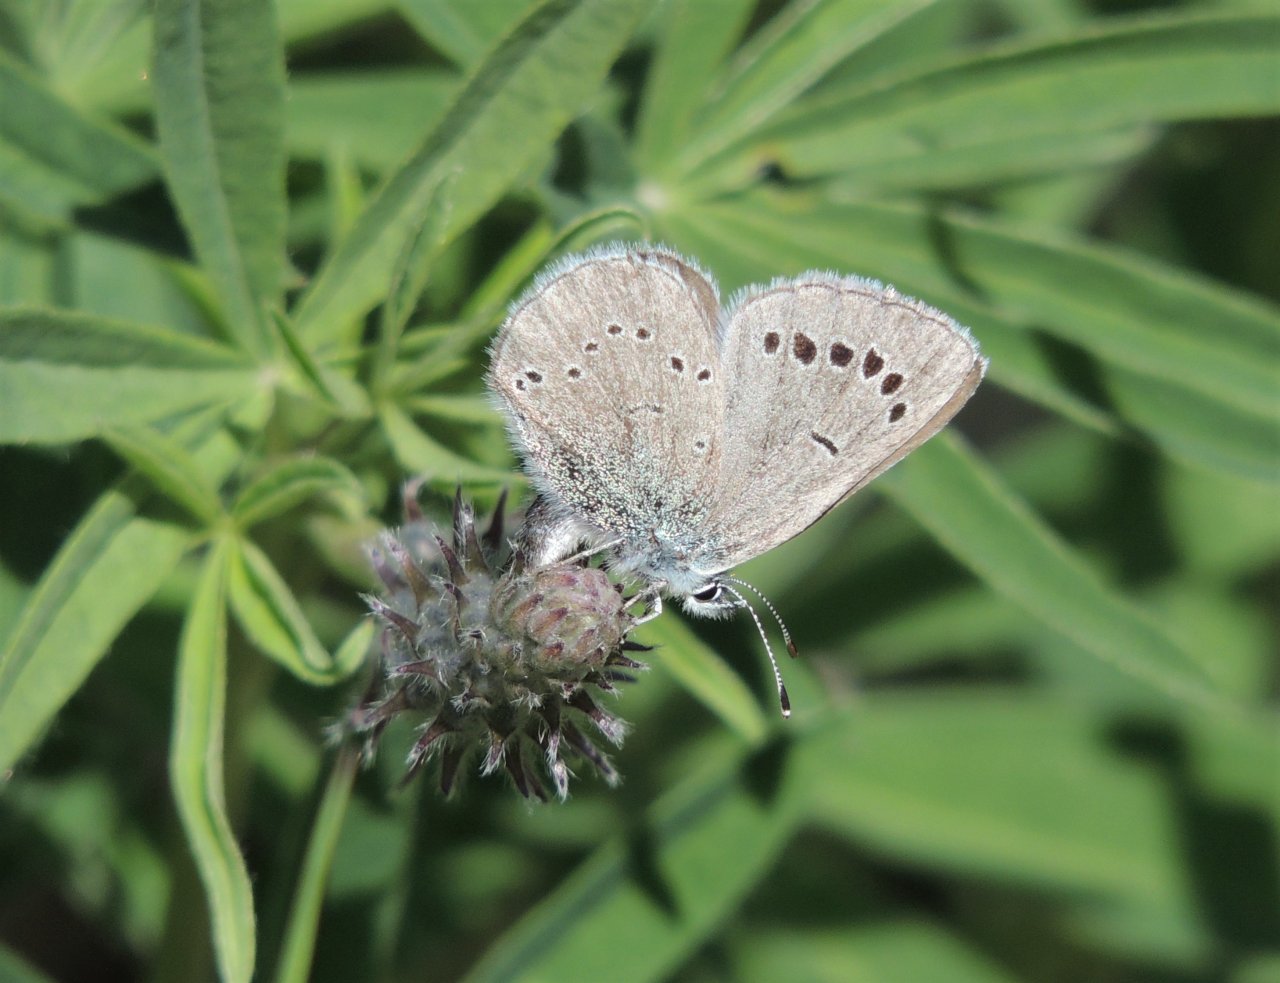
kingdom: Animalia
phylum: Arthropoda
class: Insecta
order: Lepidoptera
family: Lycaenidae
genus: Glaucopsyche
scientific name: Glaucopsyche lygdamus
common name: Silvery Blue
